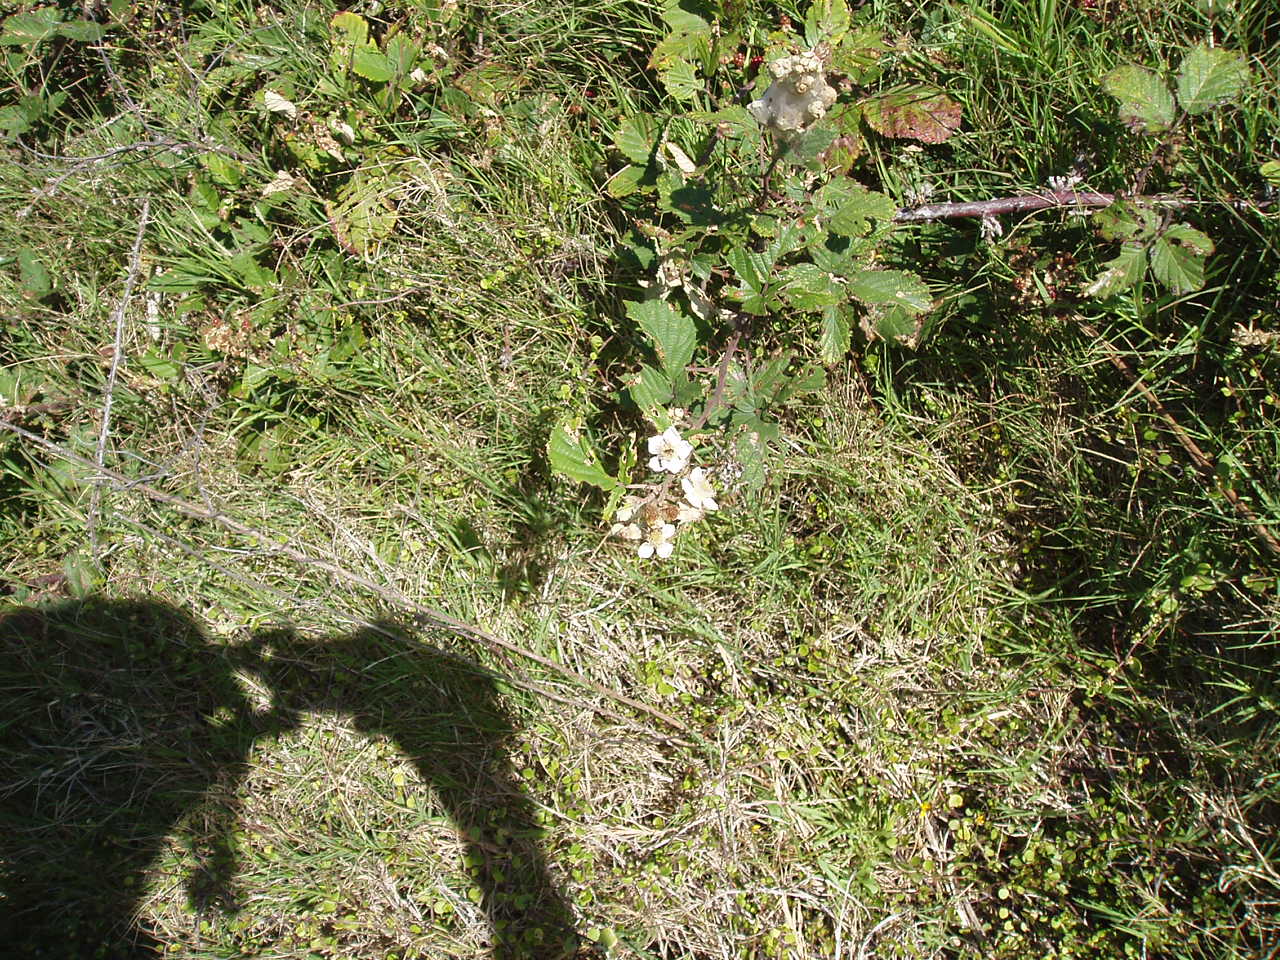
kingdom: Plantae
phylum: Tracheophyta
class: Magnoliopsida
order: Rosales
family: Rosaceae
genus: Rubus
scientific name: Rubus ulmifolius
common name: Elmleaf blackberry
